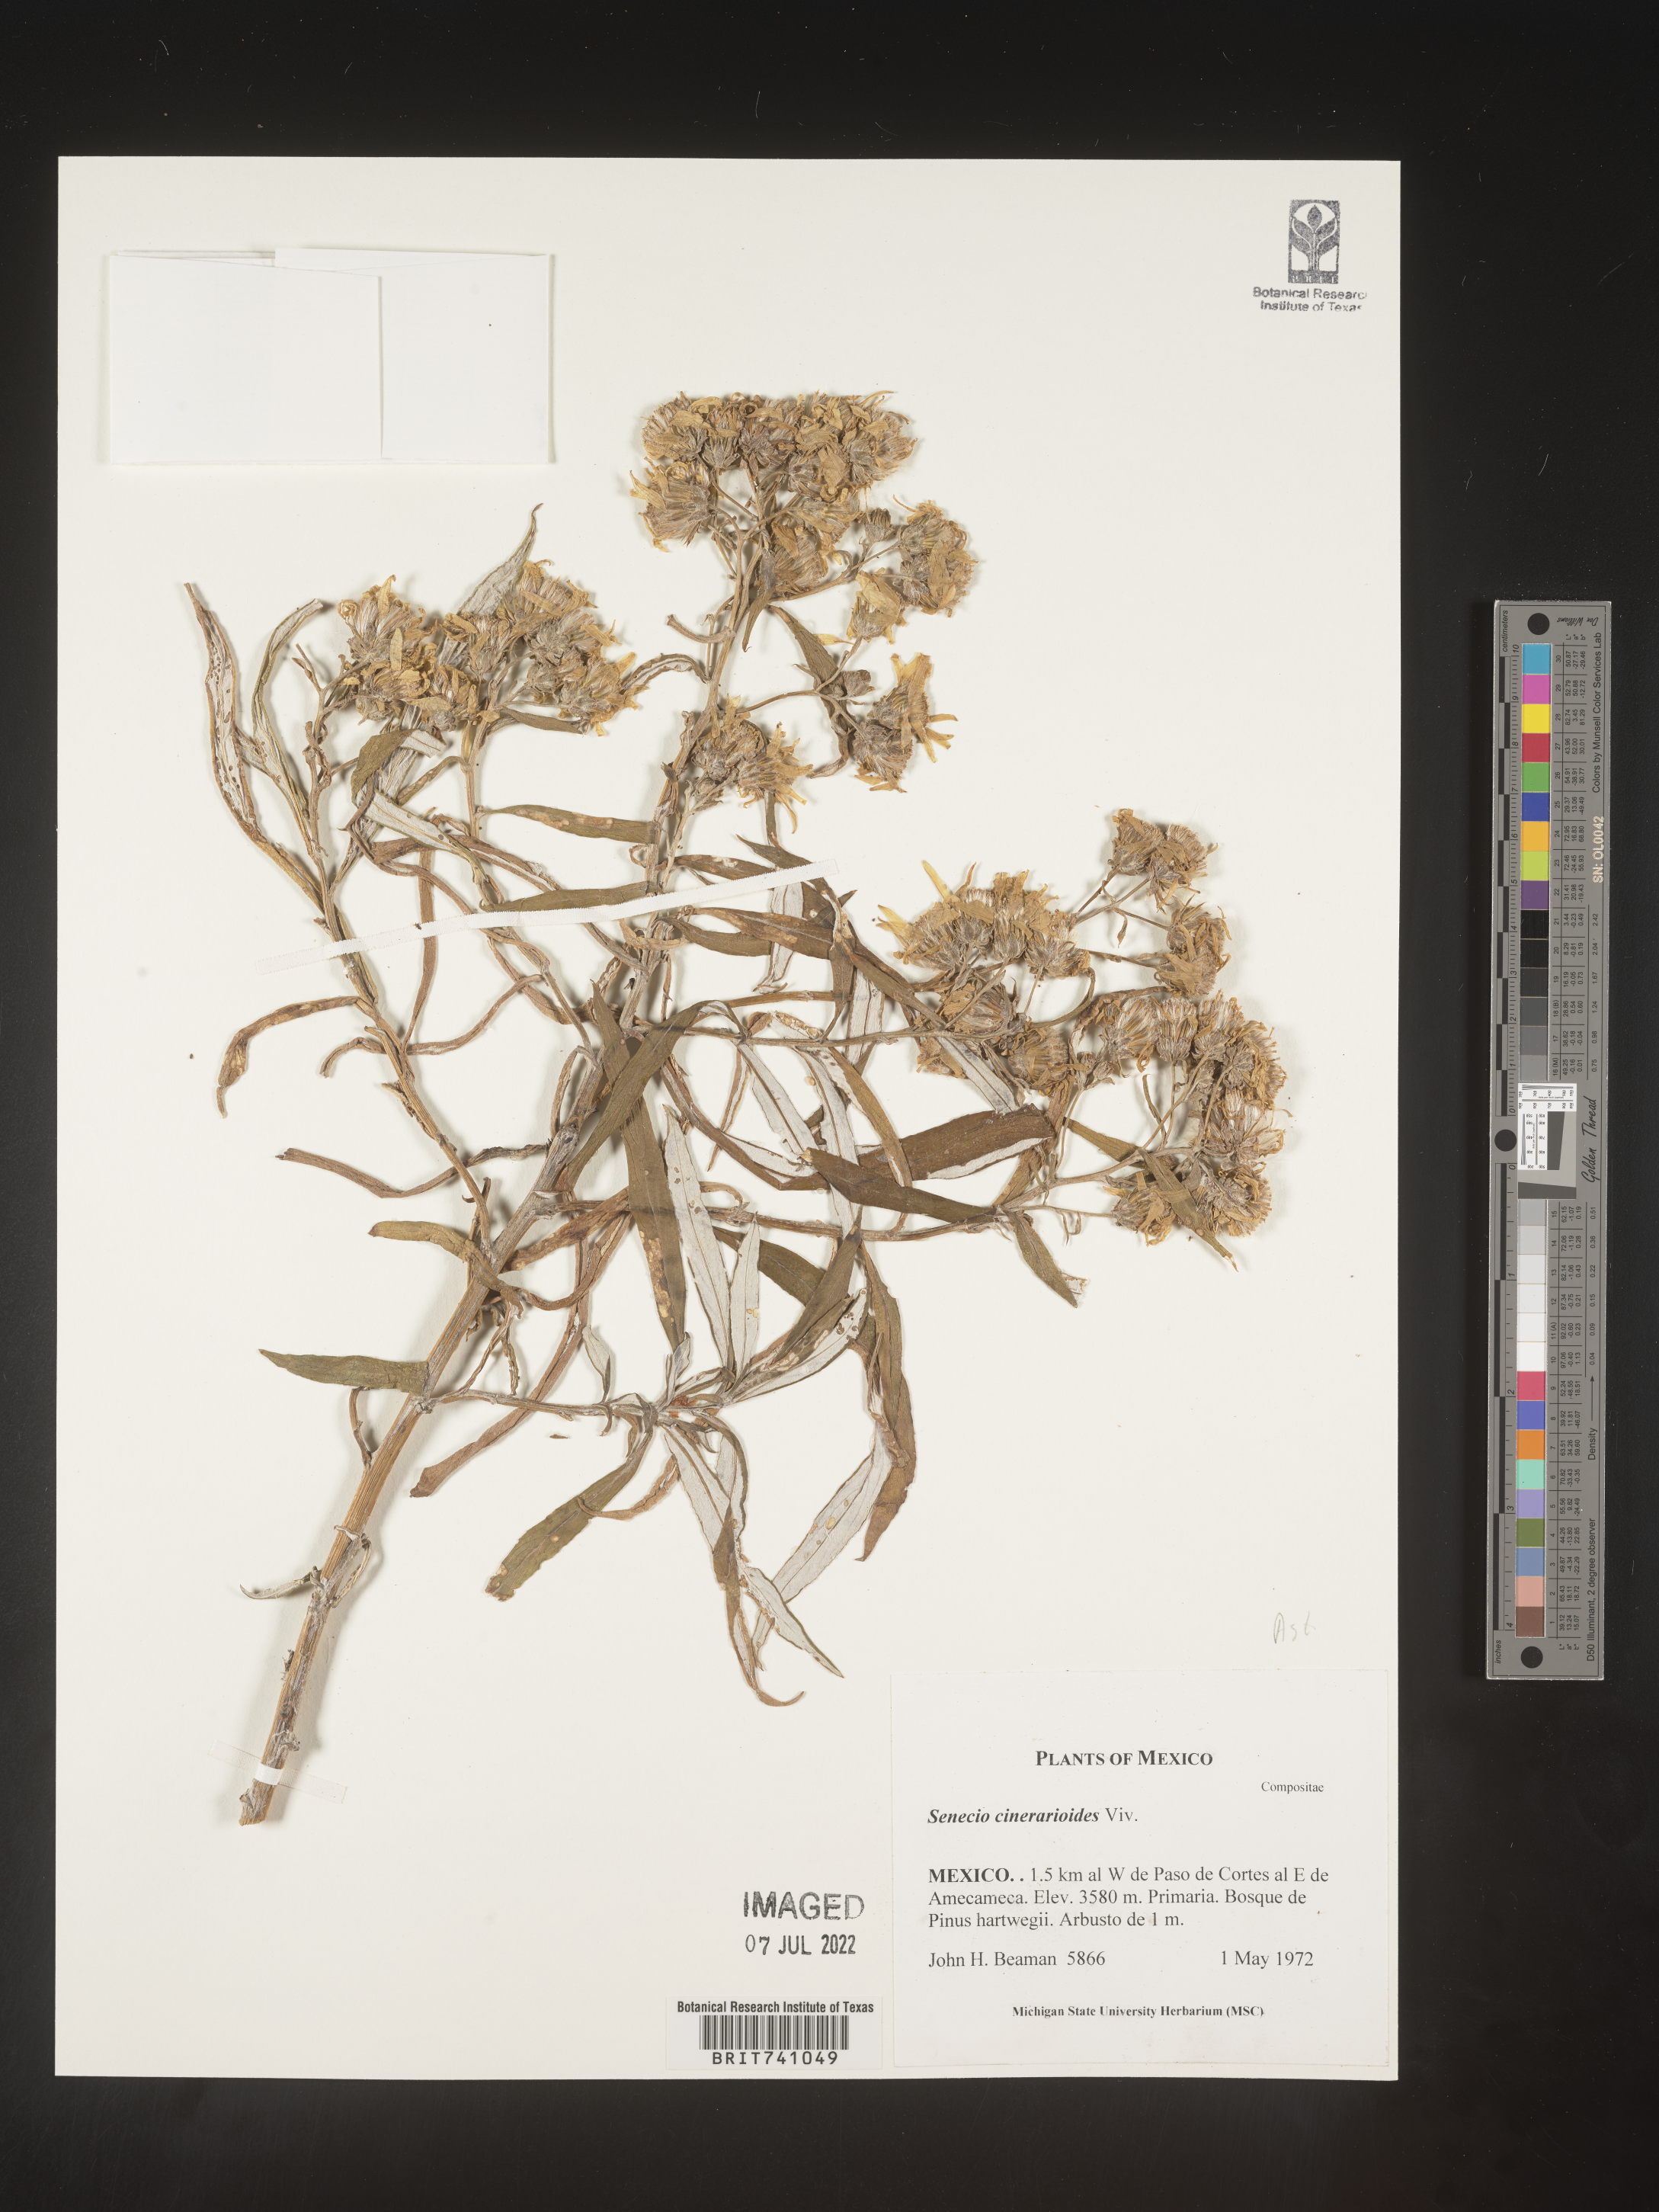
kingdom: Plantae
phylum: Tracheophyta
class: Magnoliopsida
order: Asterales
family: Asteraceae
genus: Senecio
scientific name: Senecio
